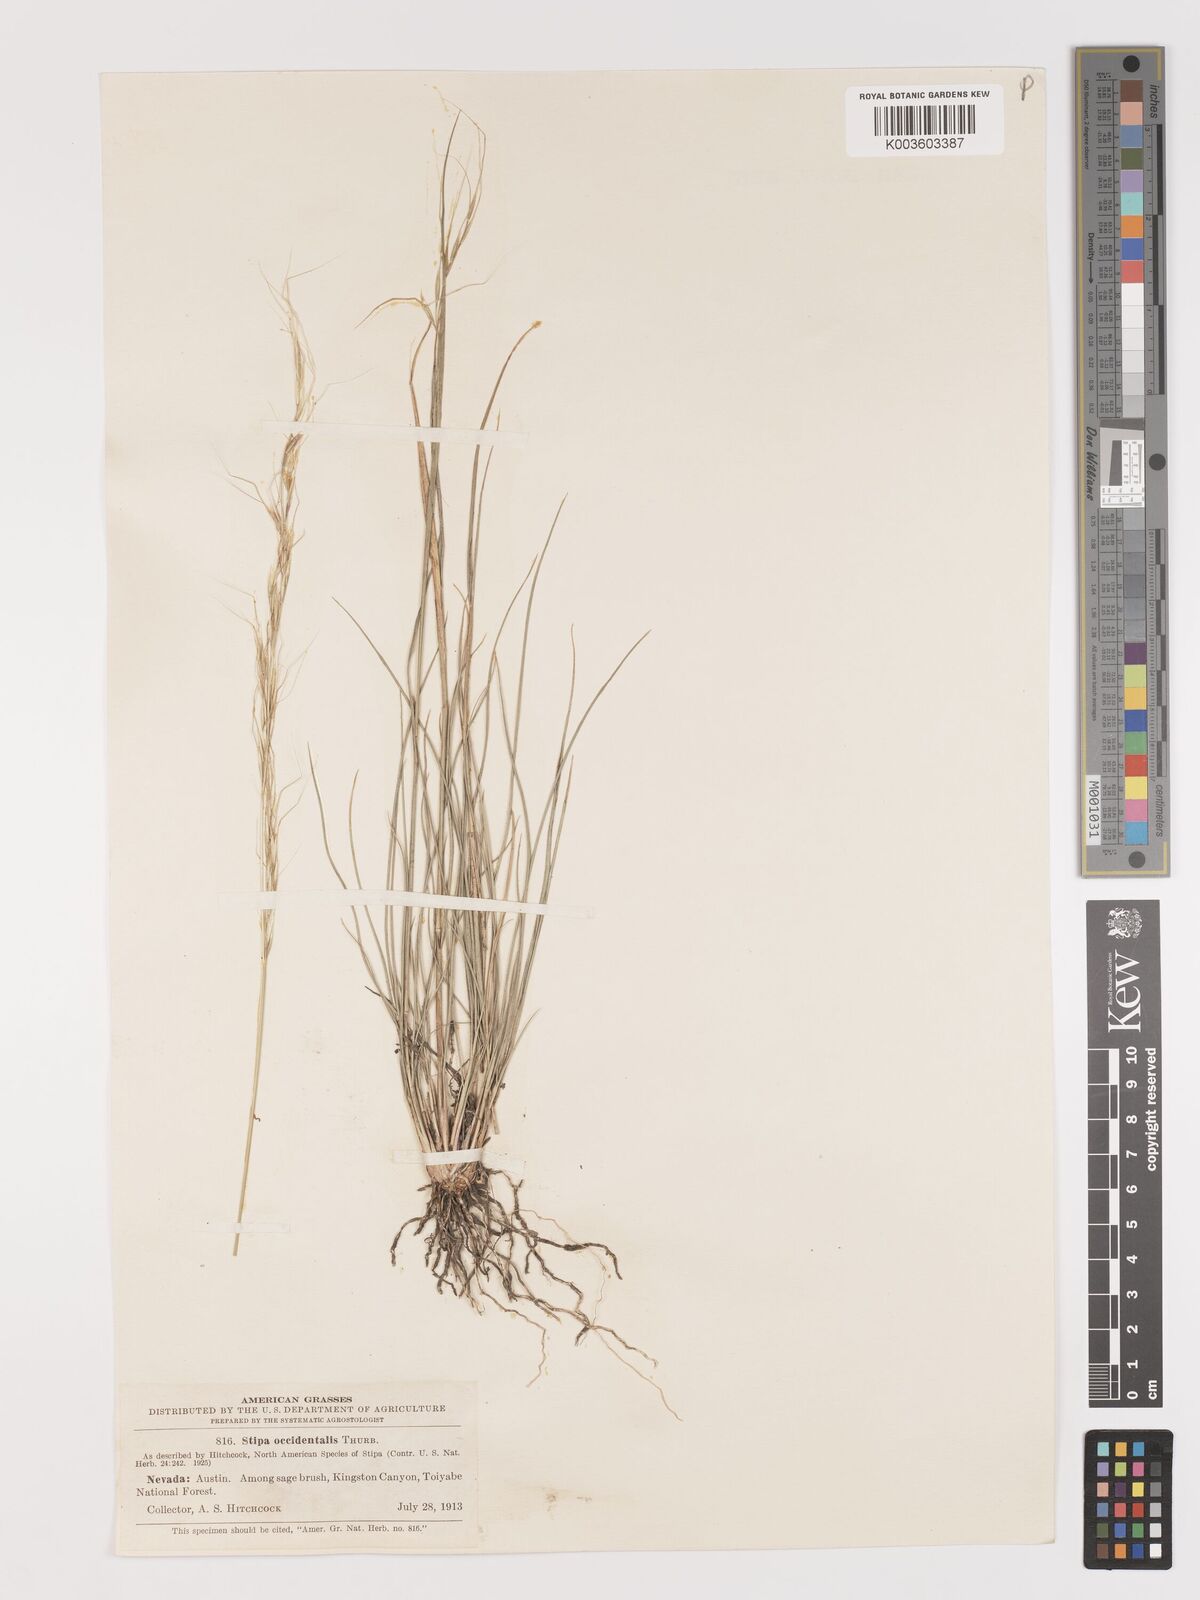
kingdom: Plantae
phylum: Tracheophyta
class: Liliopsida
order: Poales
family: Poaceae
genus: Eriocoma
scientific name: Eriocoma thurberiana
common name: Thurber's needlegrass
